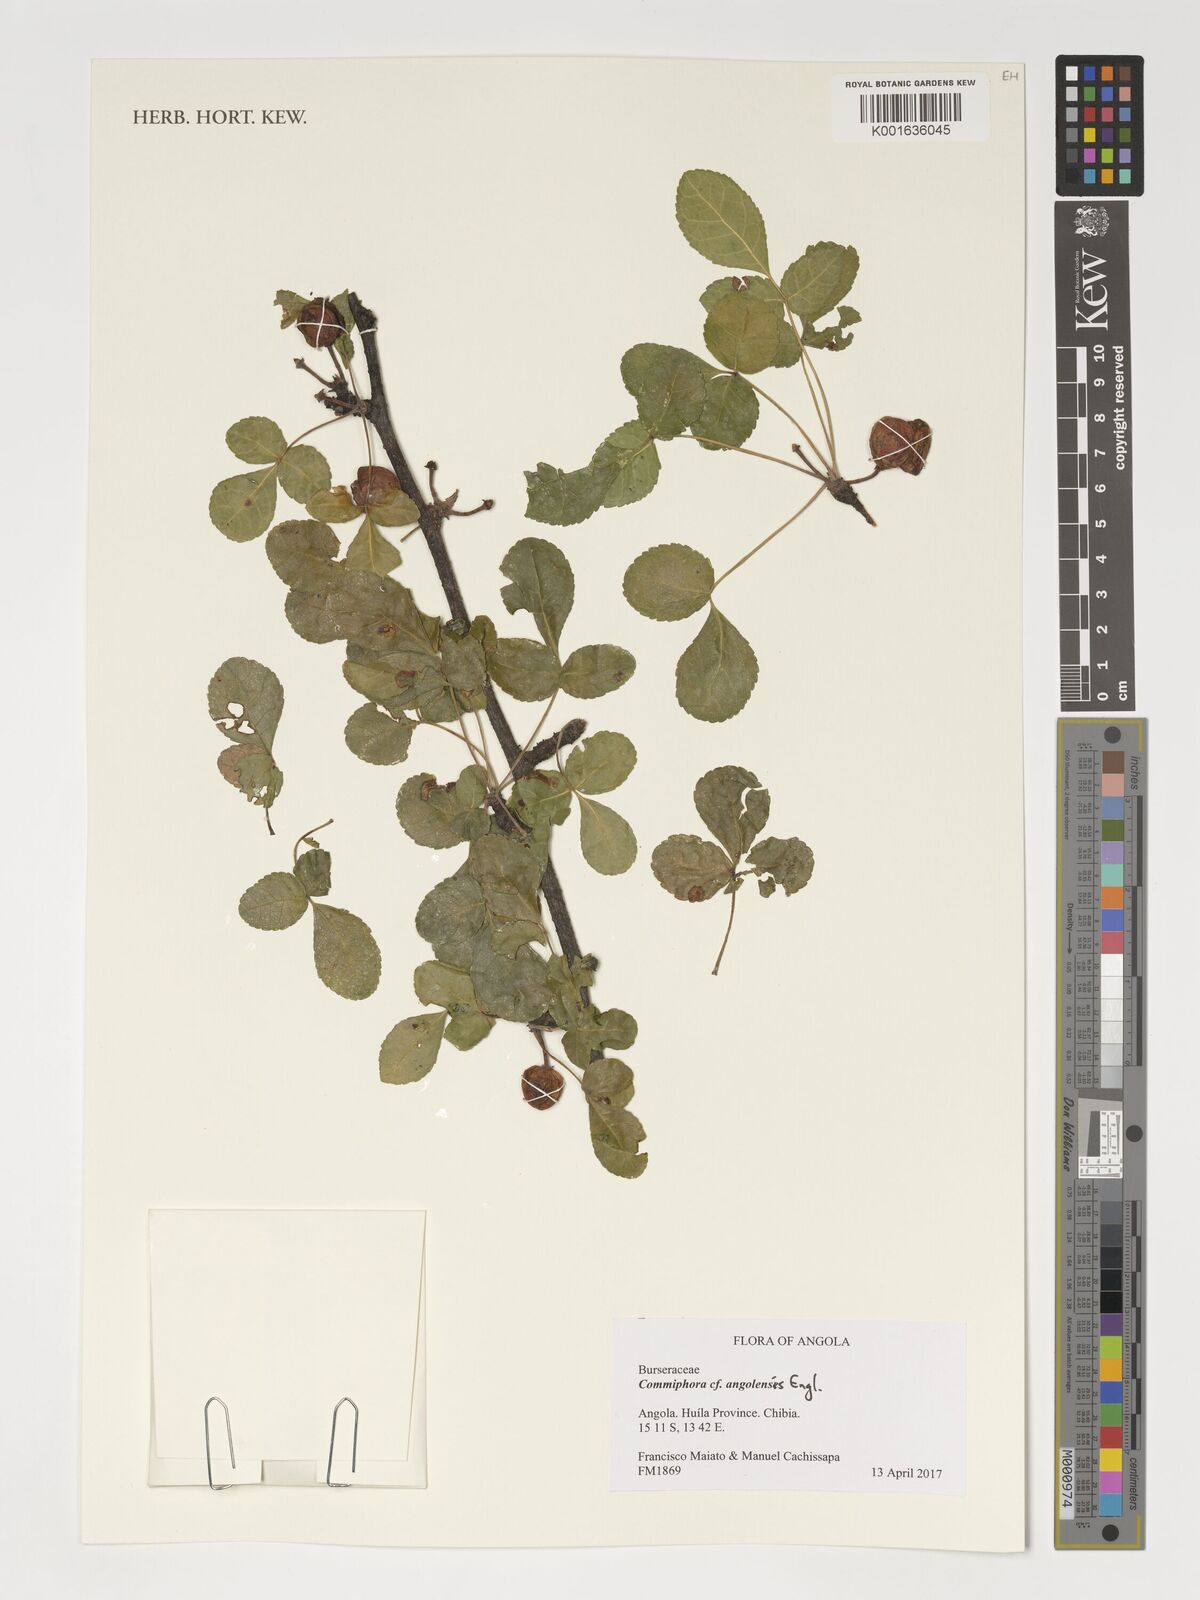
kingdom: Plantae
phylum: Tracheophyta
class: Magnoliopsida
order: Sapindales
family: Burseraceae
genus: Commiphora
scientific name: Commiphora angolensis
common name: Poison-grub
